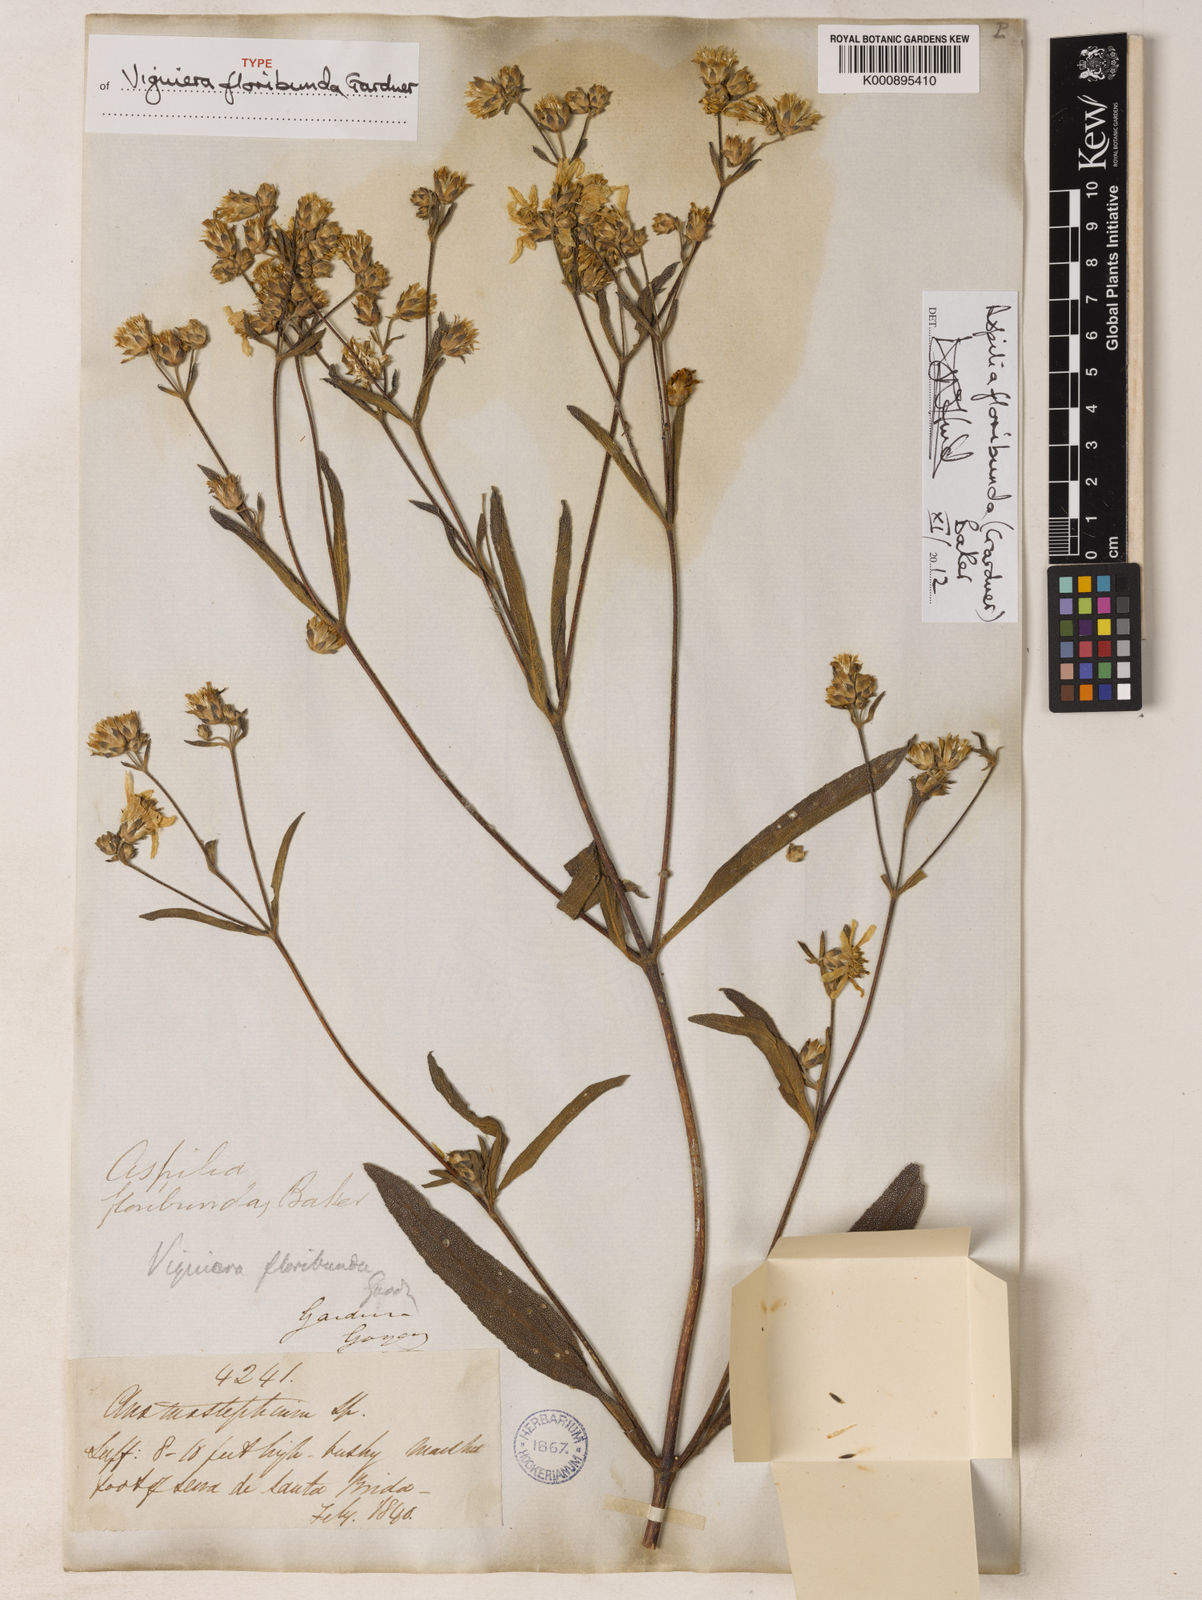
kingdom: Plantae
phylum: Tracheophyta
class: Magnoliopsida
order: Asterales
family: Asteraceae
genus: Wedelia
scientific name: Wedelia floribunda
